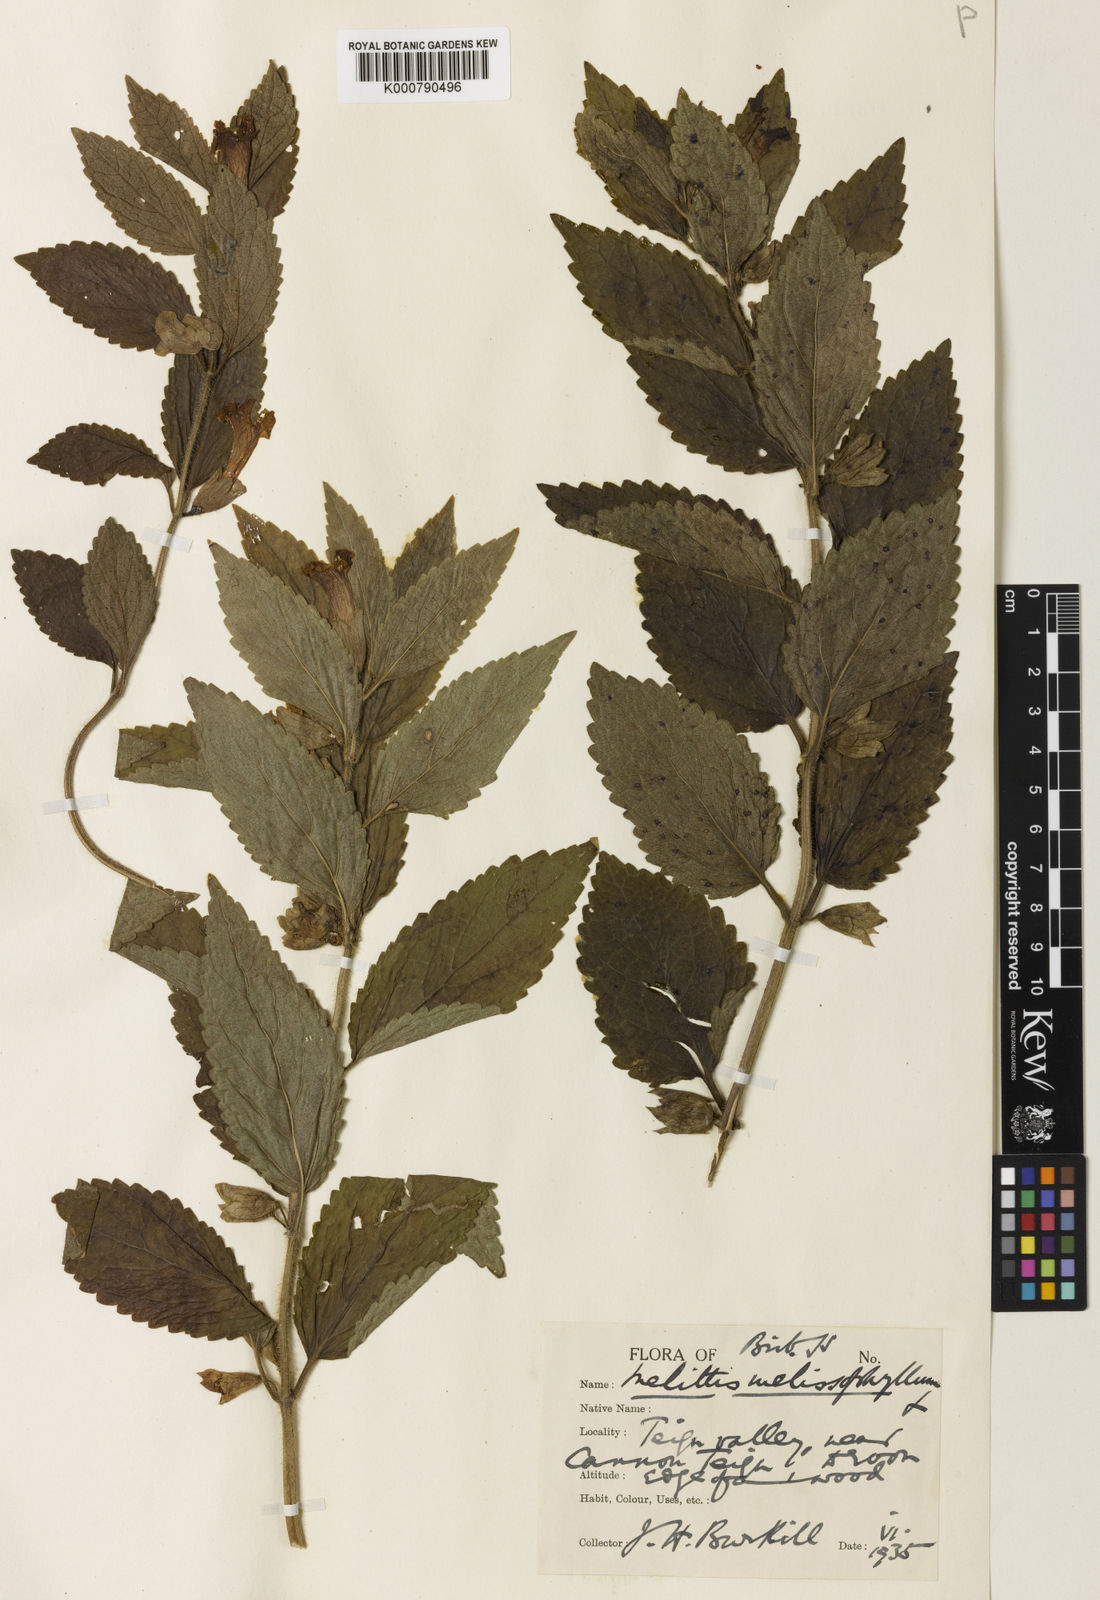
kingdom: Plantae
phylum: Tracheophyta
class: Magnoliopsida
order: Lamiales
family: Lamiaceae
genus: Melittis
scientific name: Melittis melissophyllum
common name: Bastard balm
